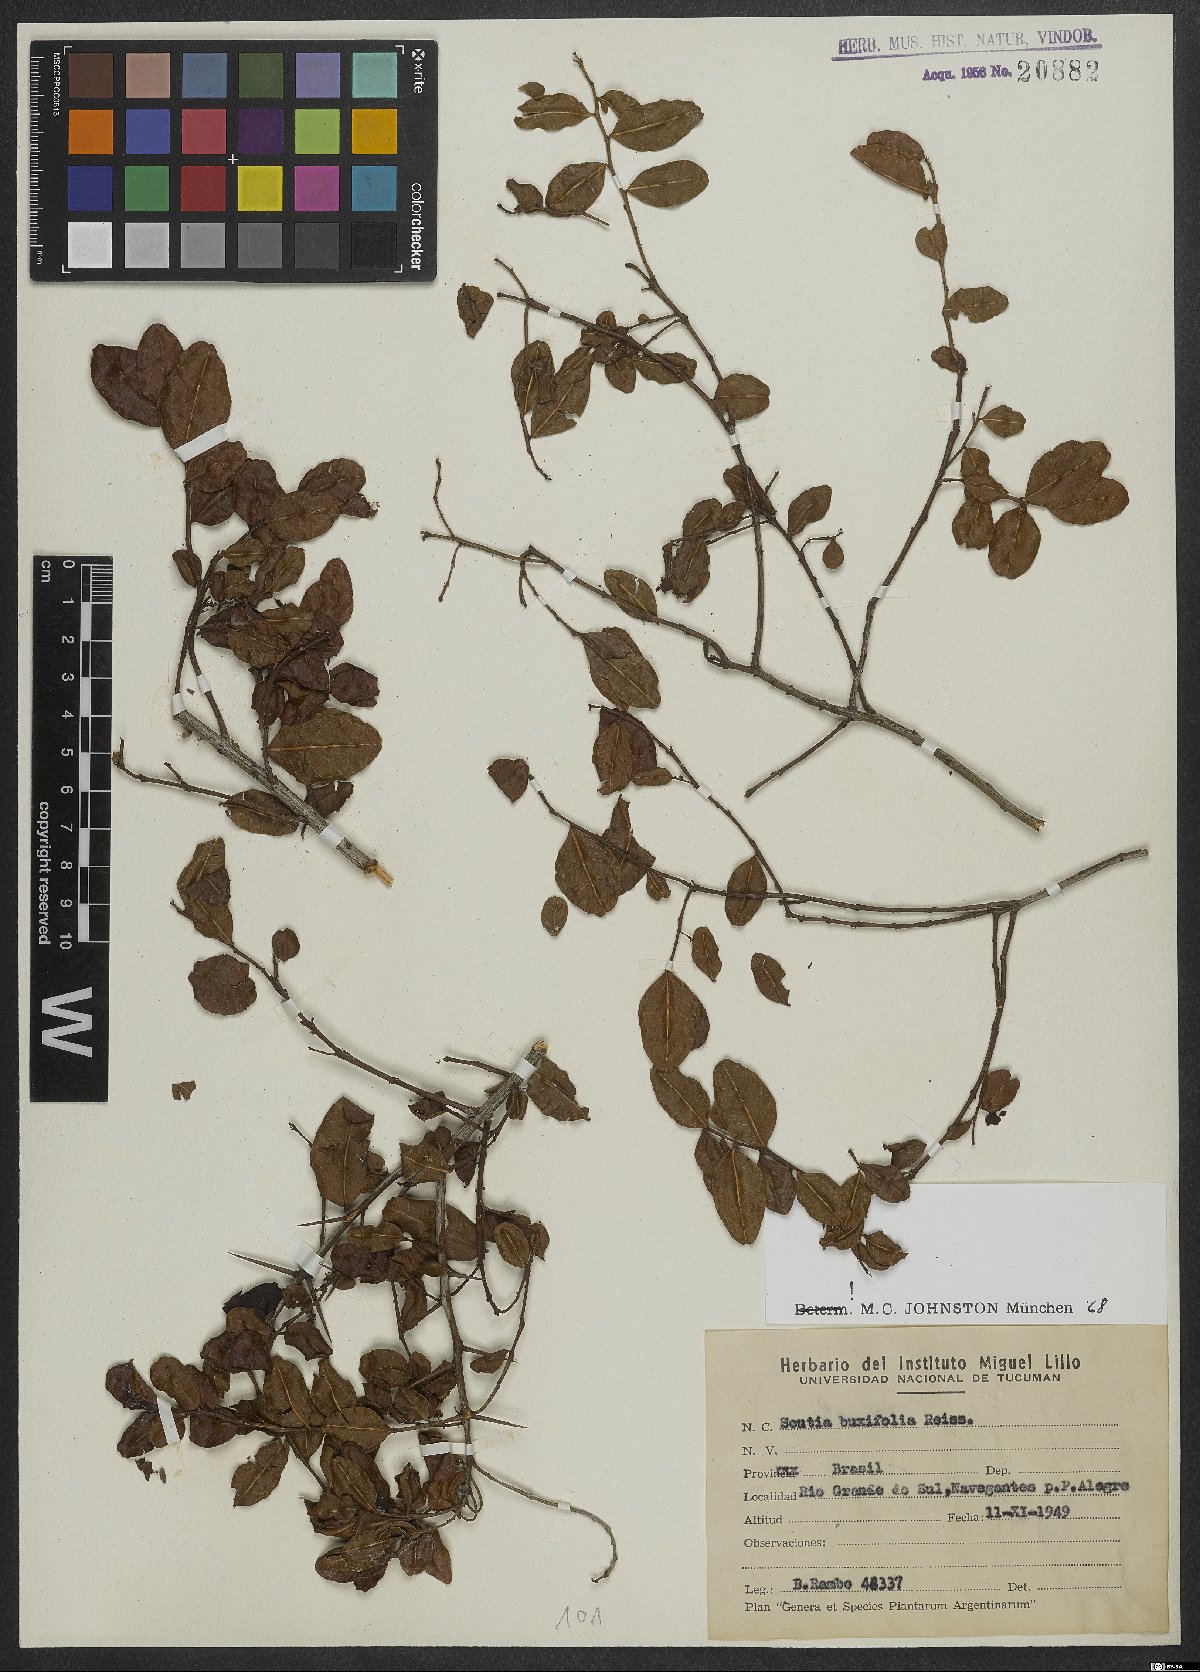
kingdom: Plantae
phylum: Tracheophyta
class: Magnoliopsida
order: Rosales
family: Rhamnaceae
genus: Scutia
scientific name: Scutia buxifolia
